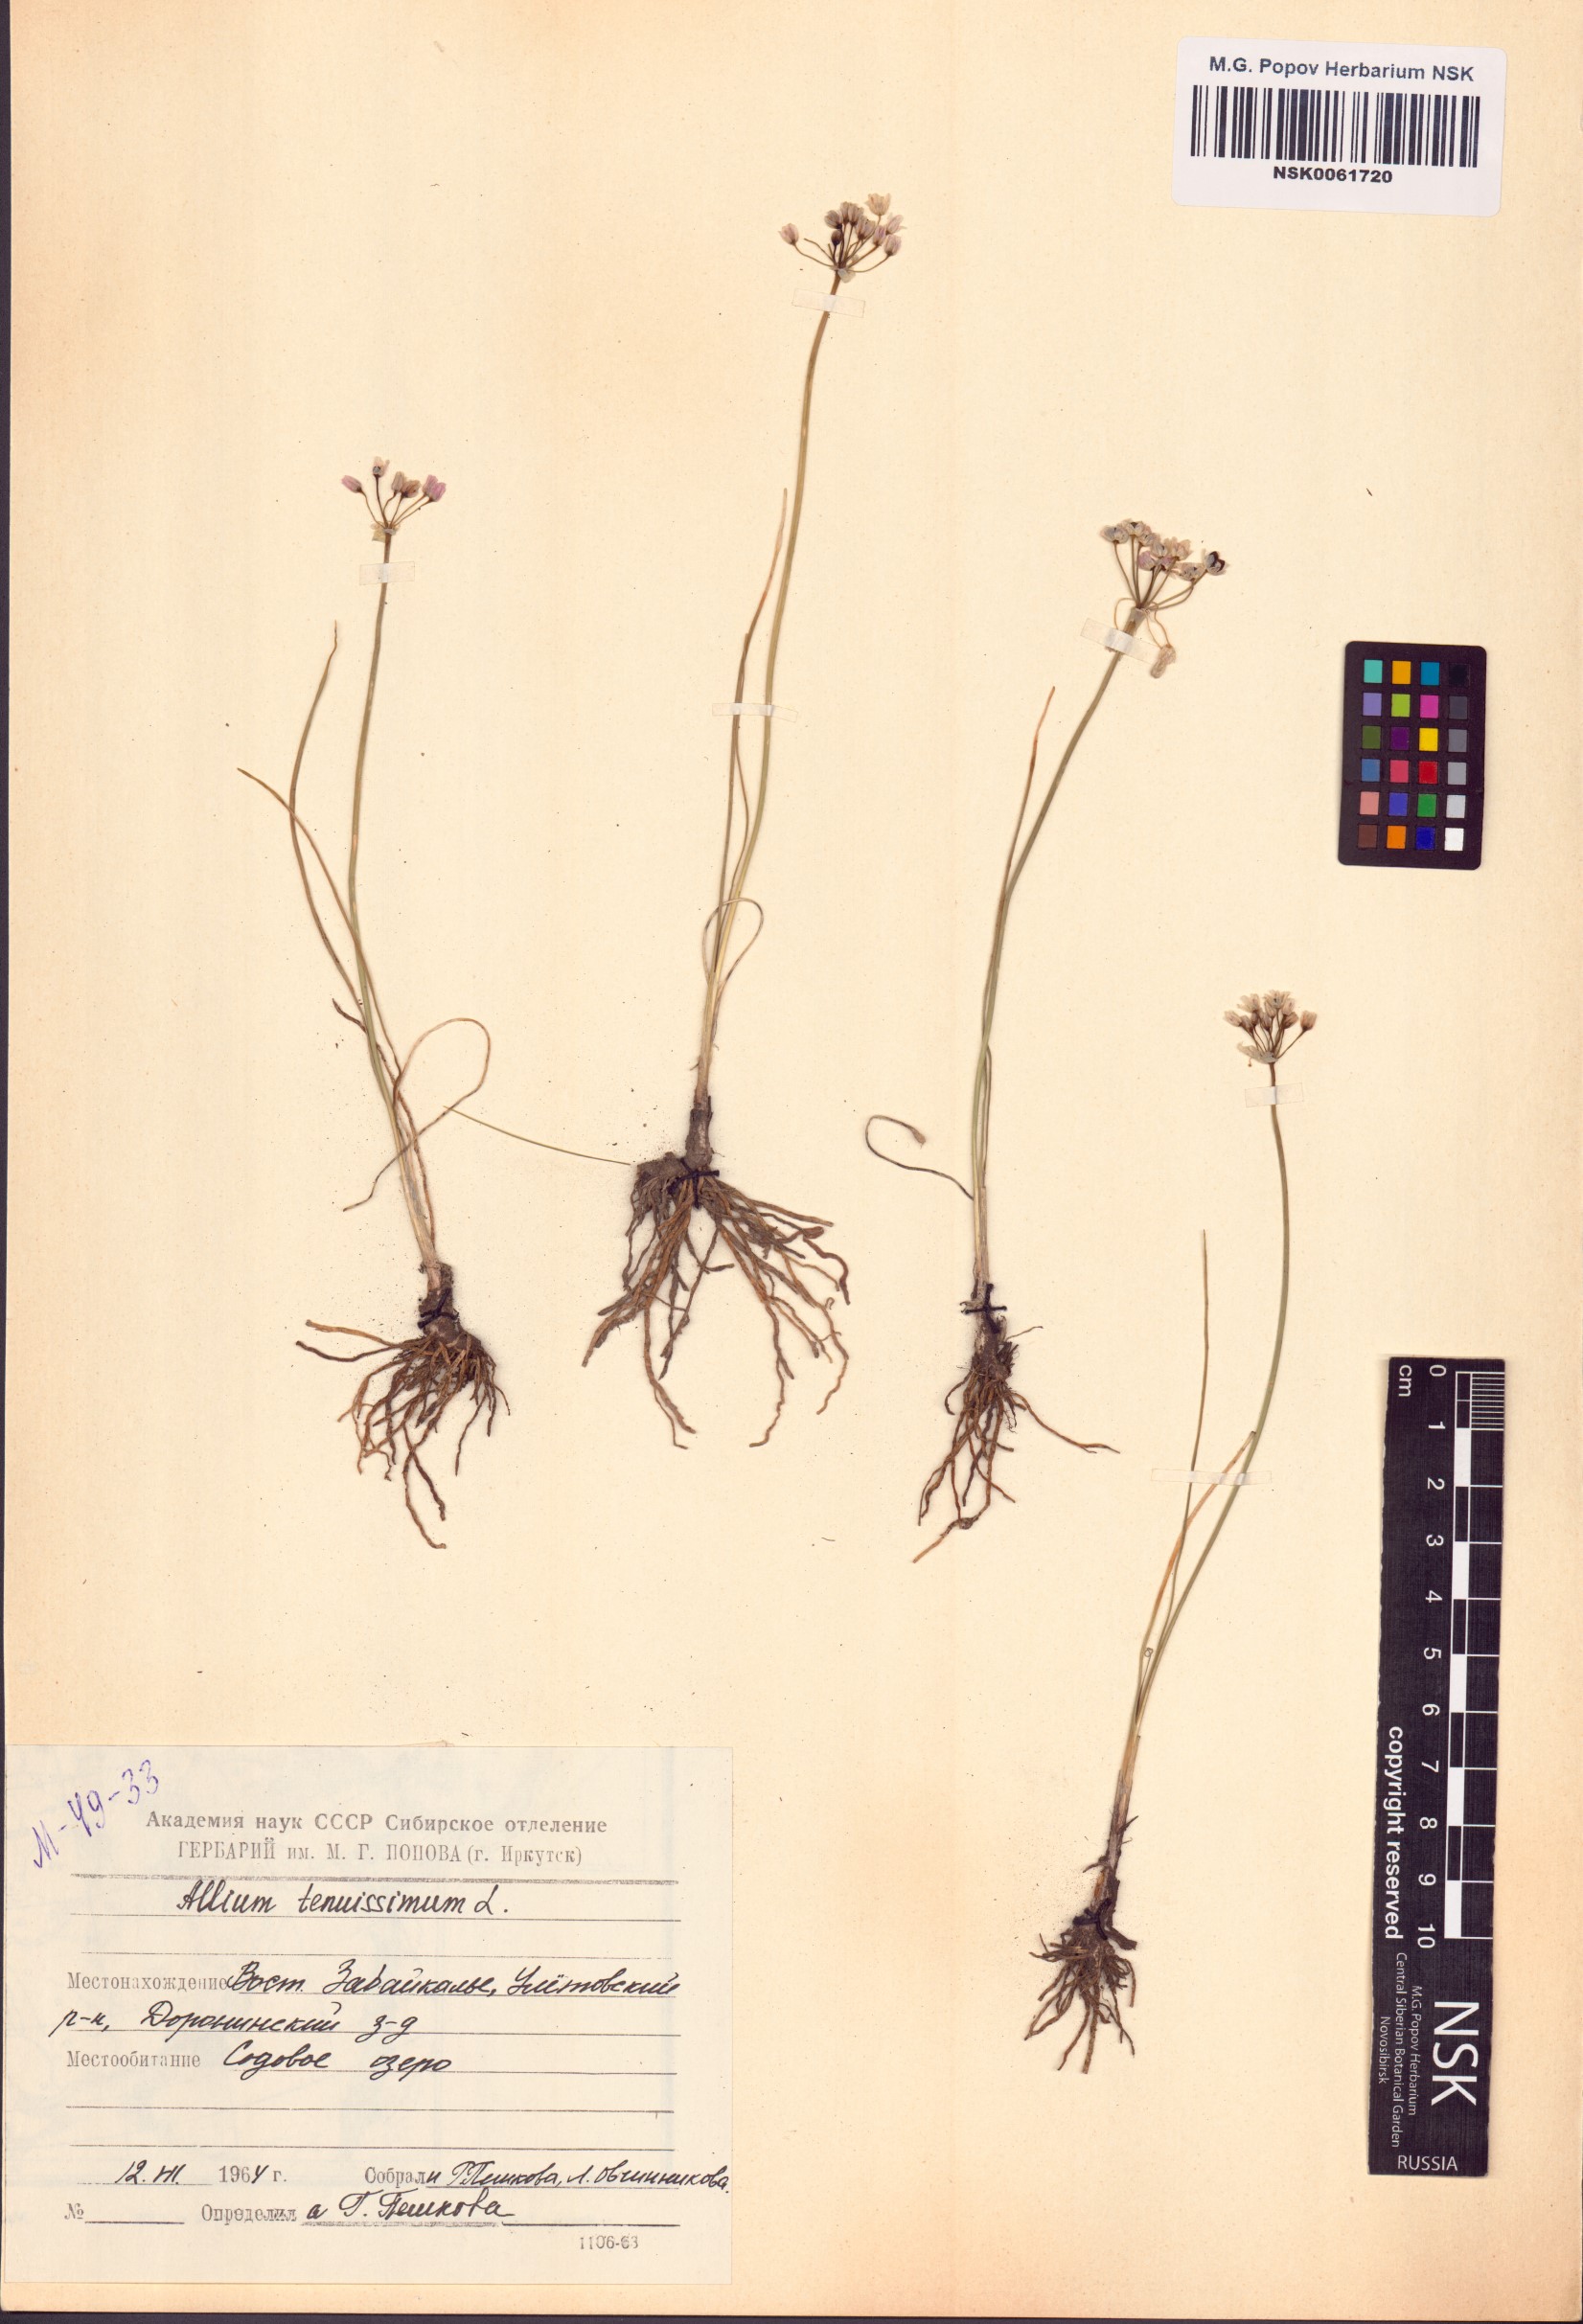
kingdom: Plantae
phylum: Tracheophyta
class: Liliopsida
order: Asparagales
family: Amaryllidaceae
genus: Allium
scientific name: Allium tenuissimum
